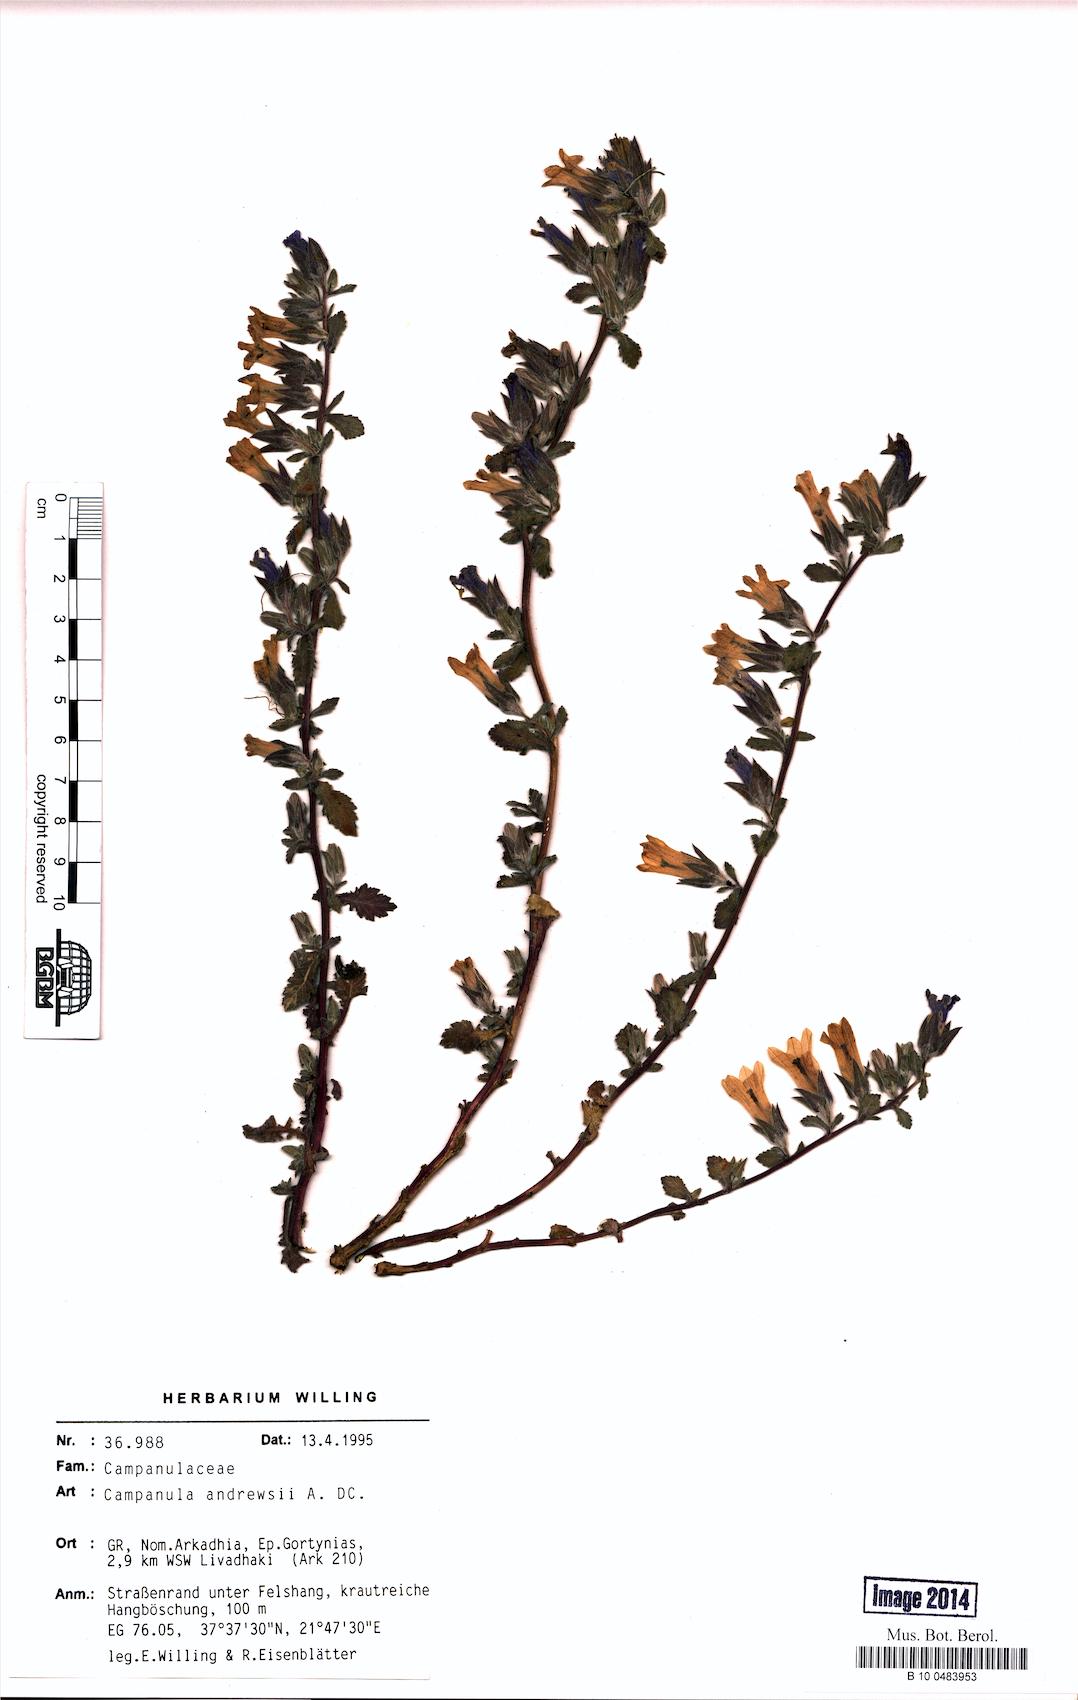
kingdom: Plantae
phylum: Tracheophyta
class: Magnoliopsida
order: Asterales
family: Campanulaceae
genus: Campanula
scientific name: Campanula andrewsii
